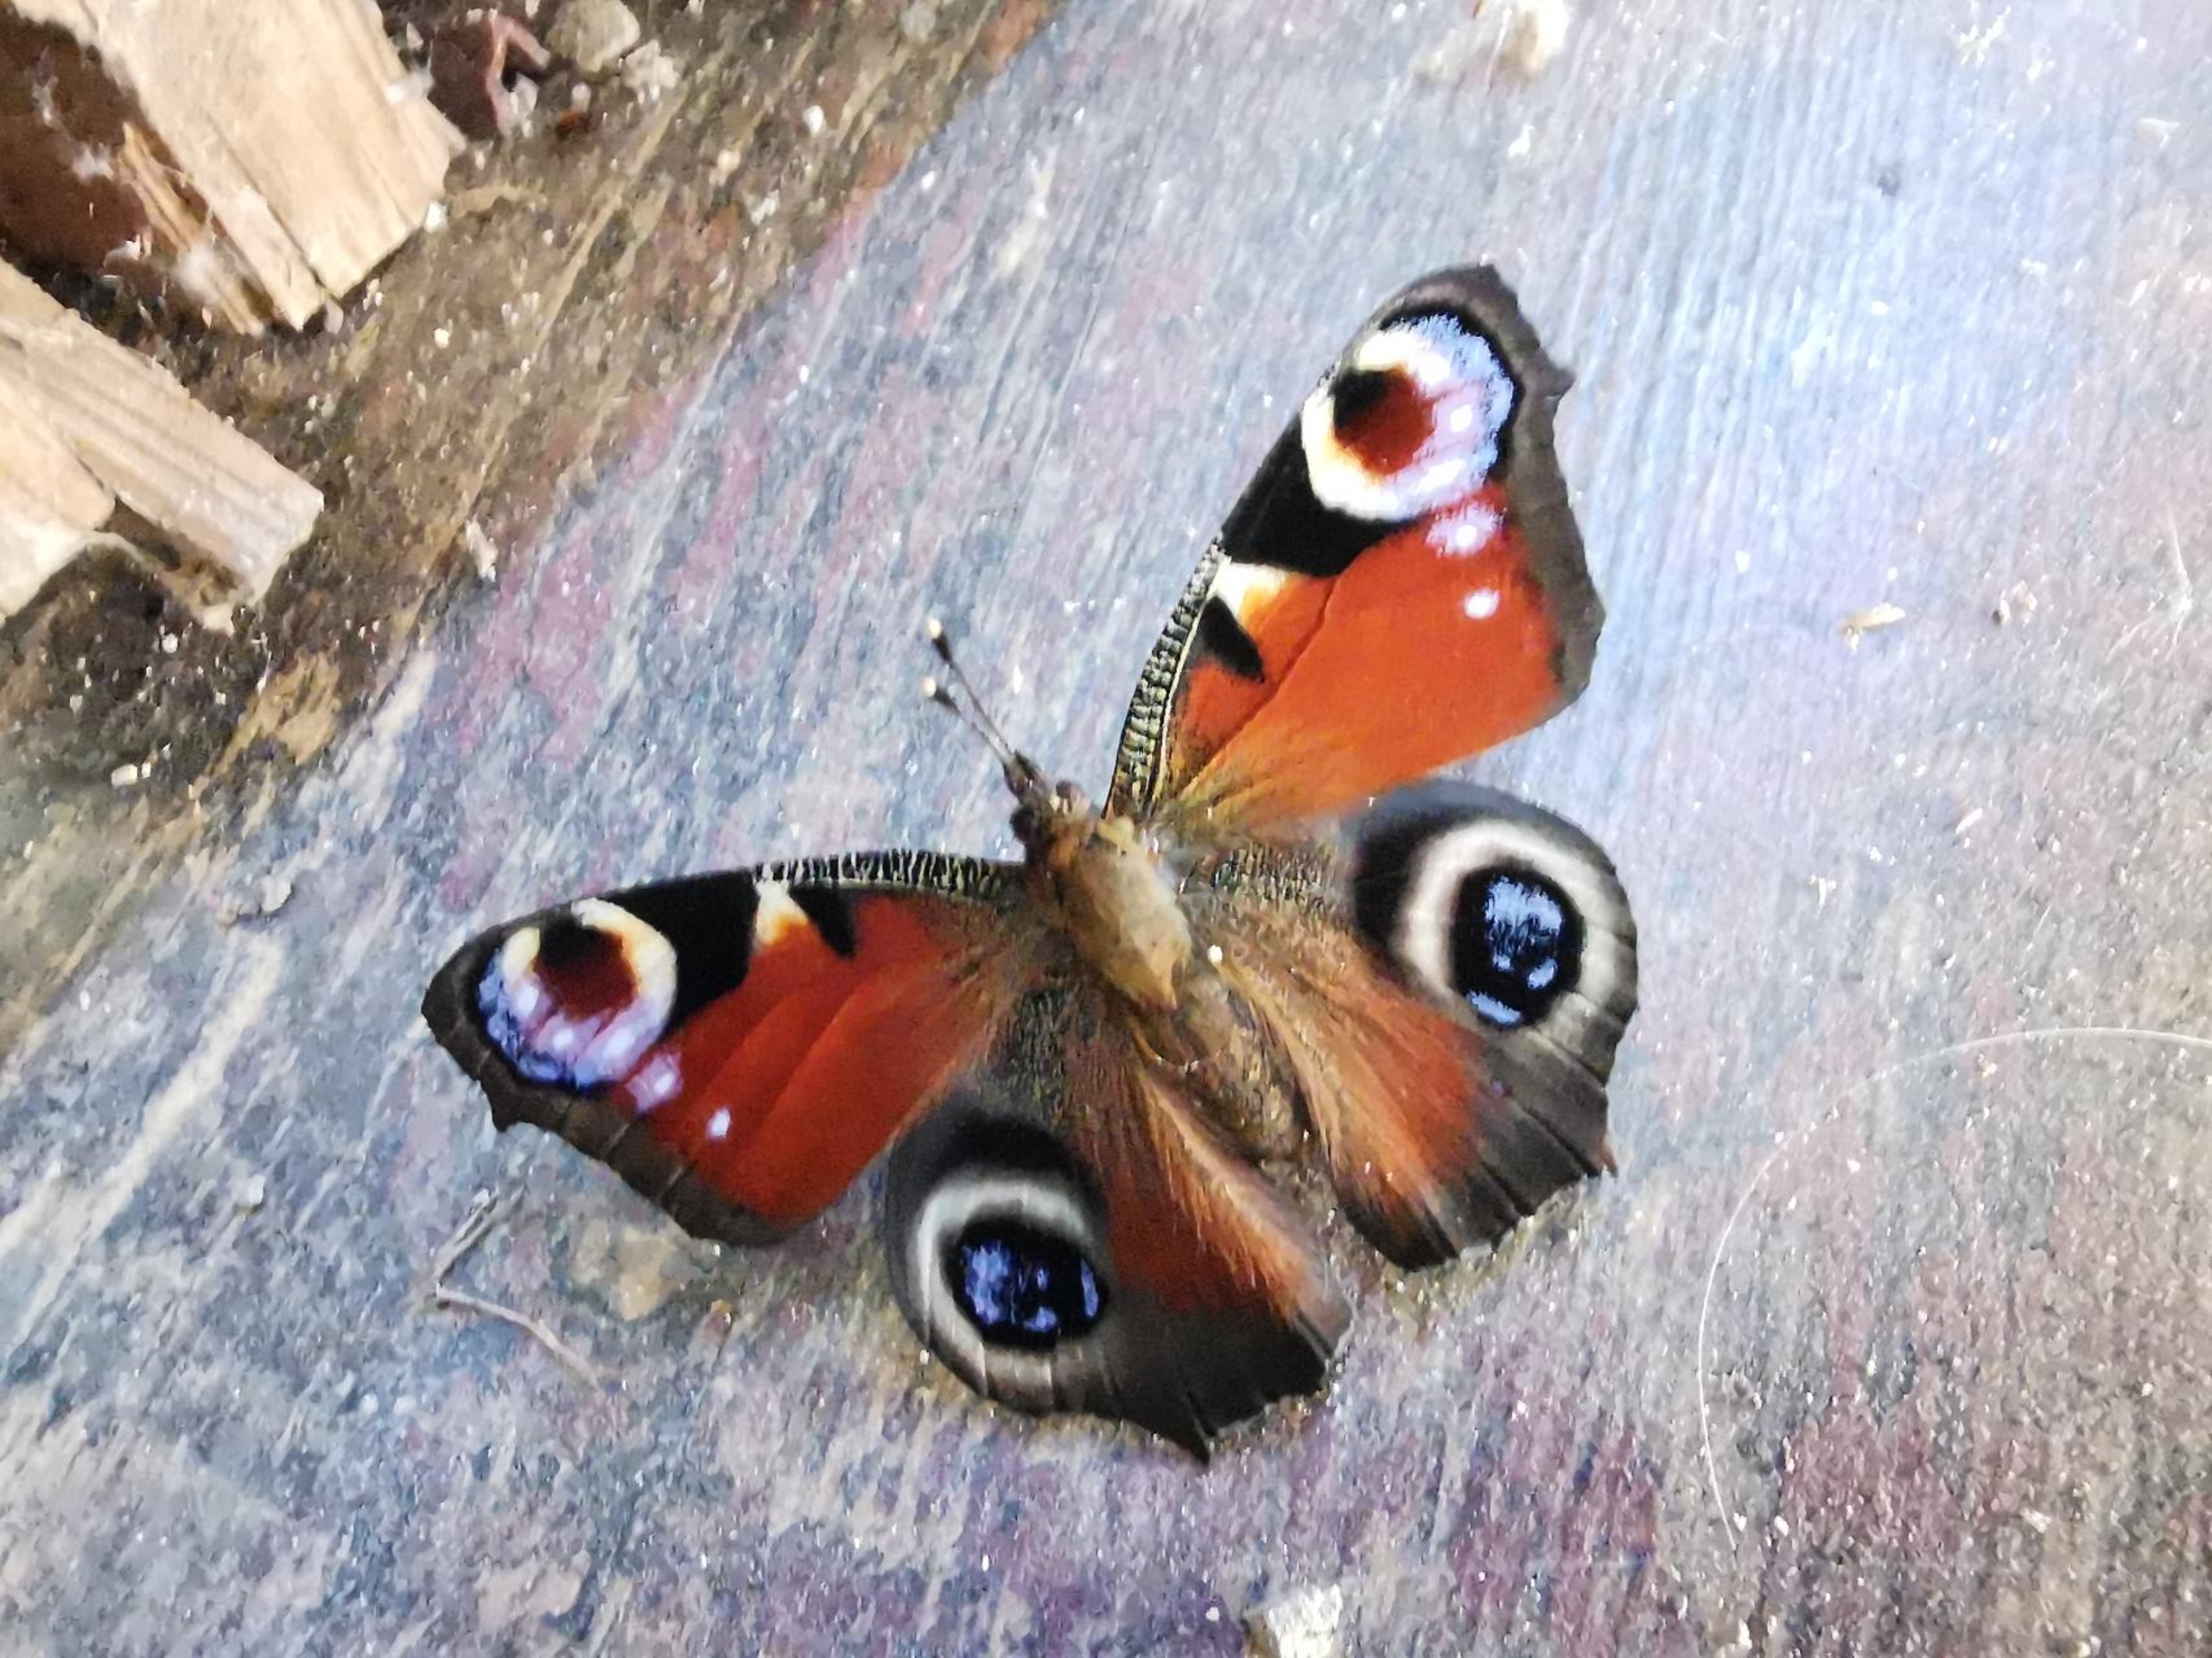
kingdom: Animalia
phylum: Arthropoda
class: Insecta
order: Lepidoptera
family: Nymphalidae
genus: Aglais
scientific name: Aglais io
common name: Dagpåfugleøje
